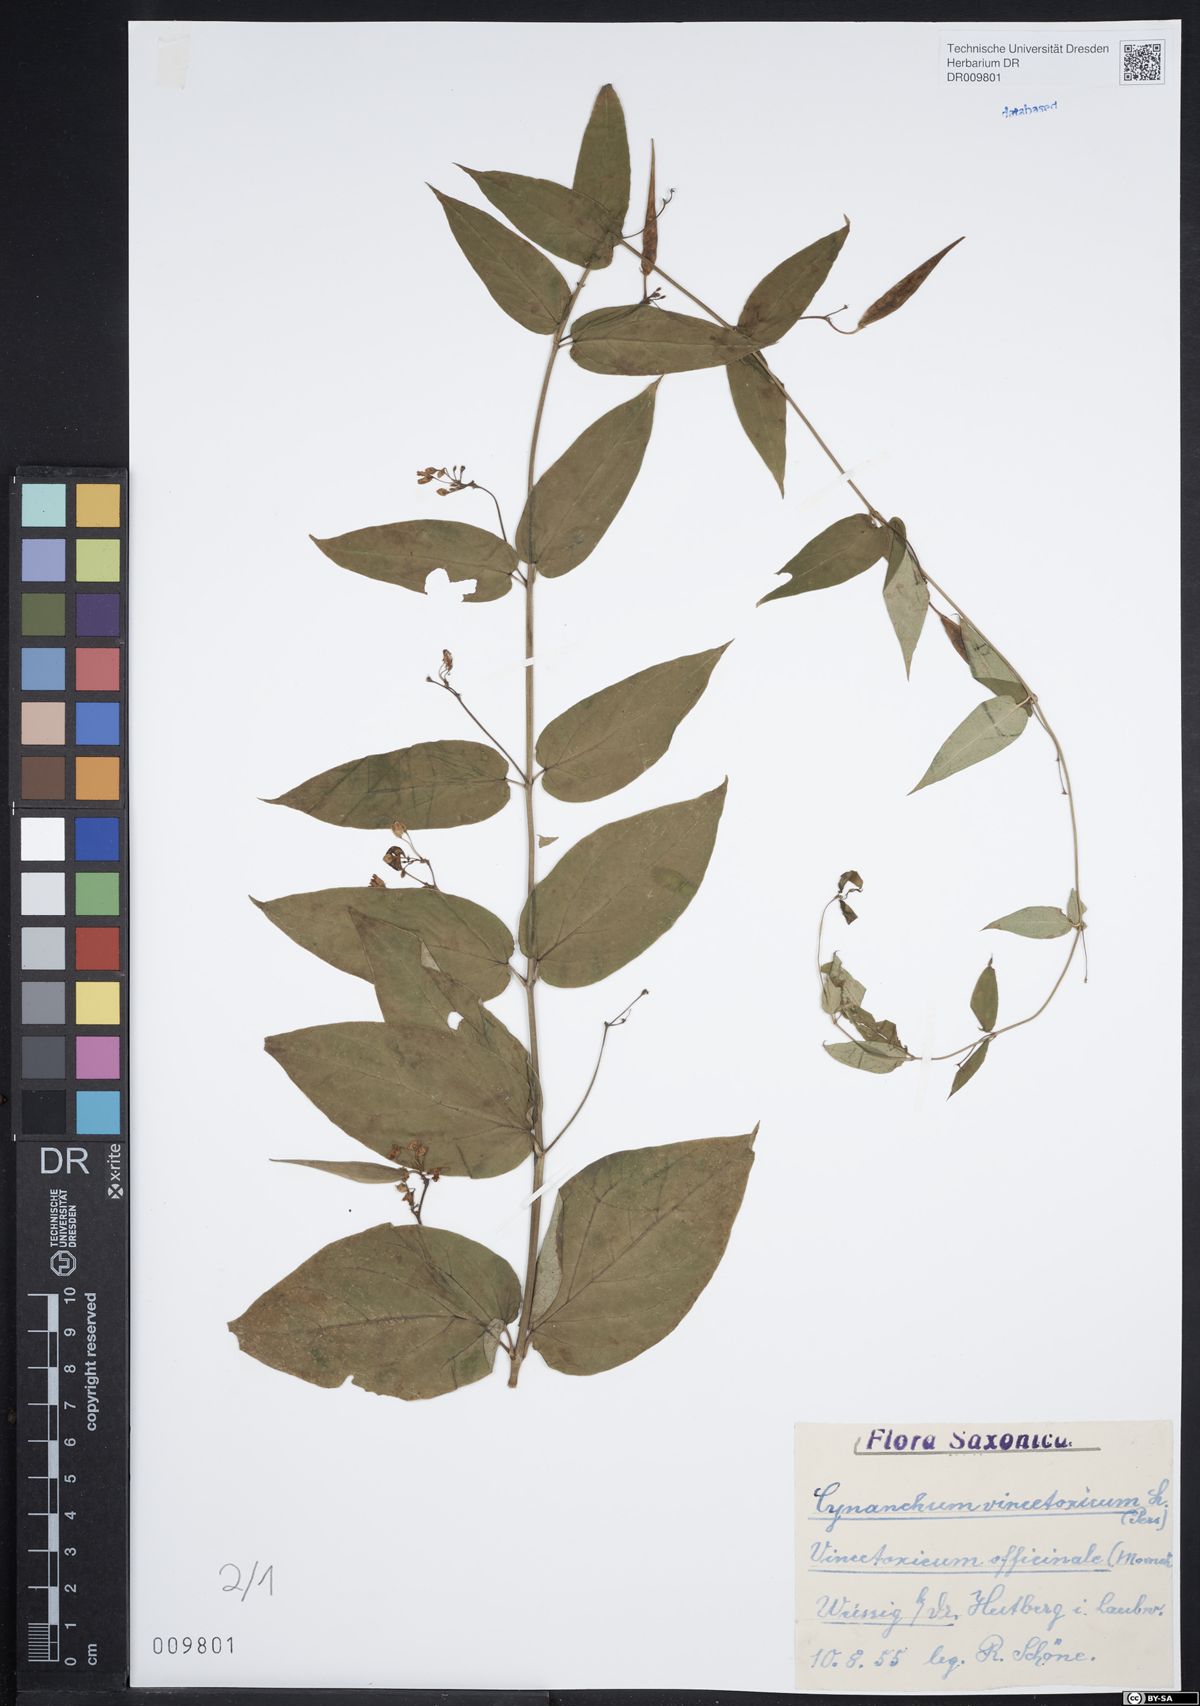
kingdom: Plantae
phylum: Tracheophyta
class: Magnoliopsida
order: Gentianales
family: Apocynaceae
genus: Vincetoxicum
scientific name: Vincetoxicum hirundinaria
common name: White swallowwort
